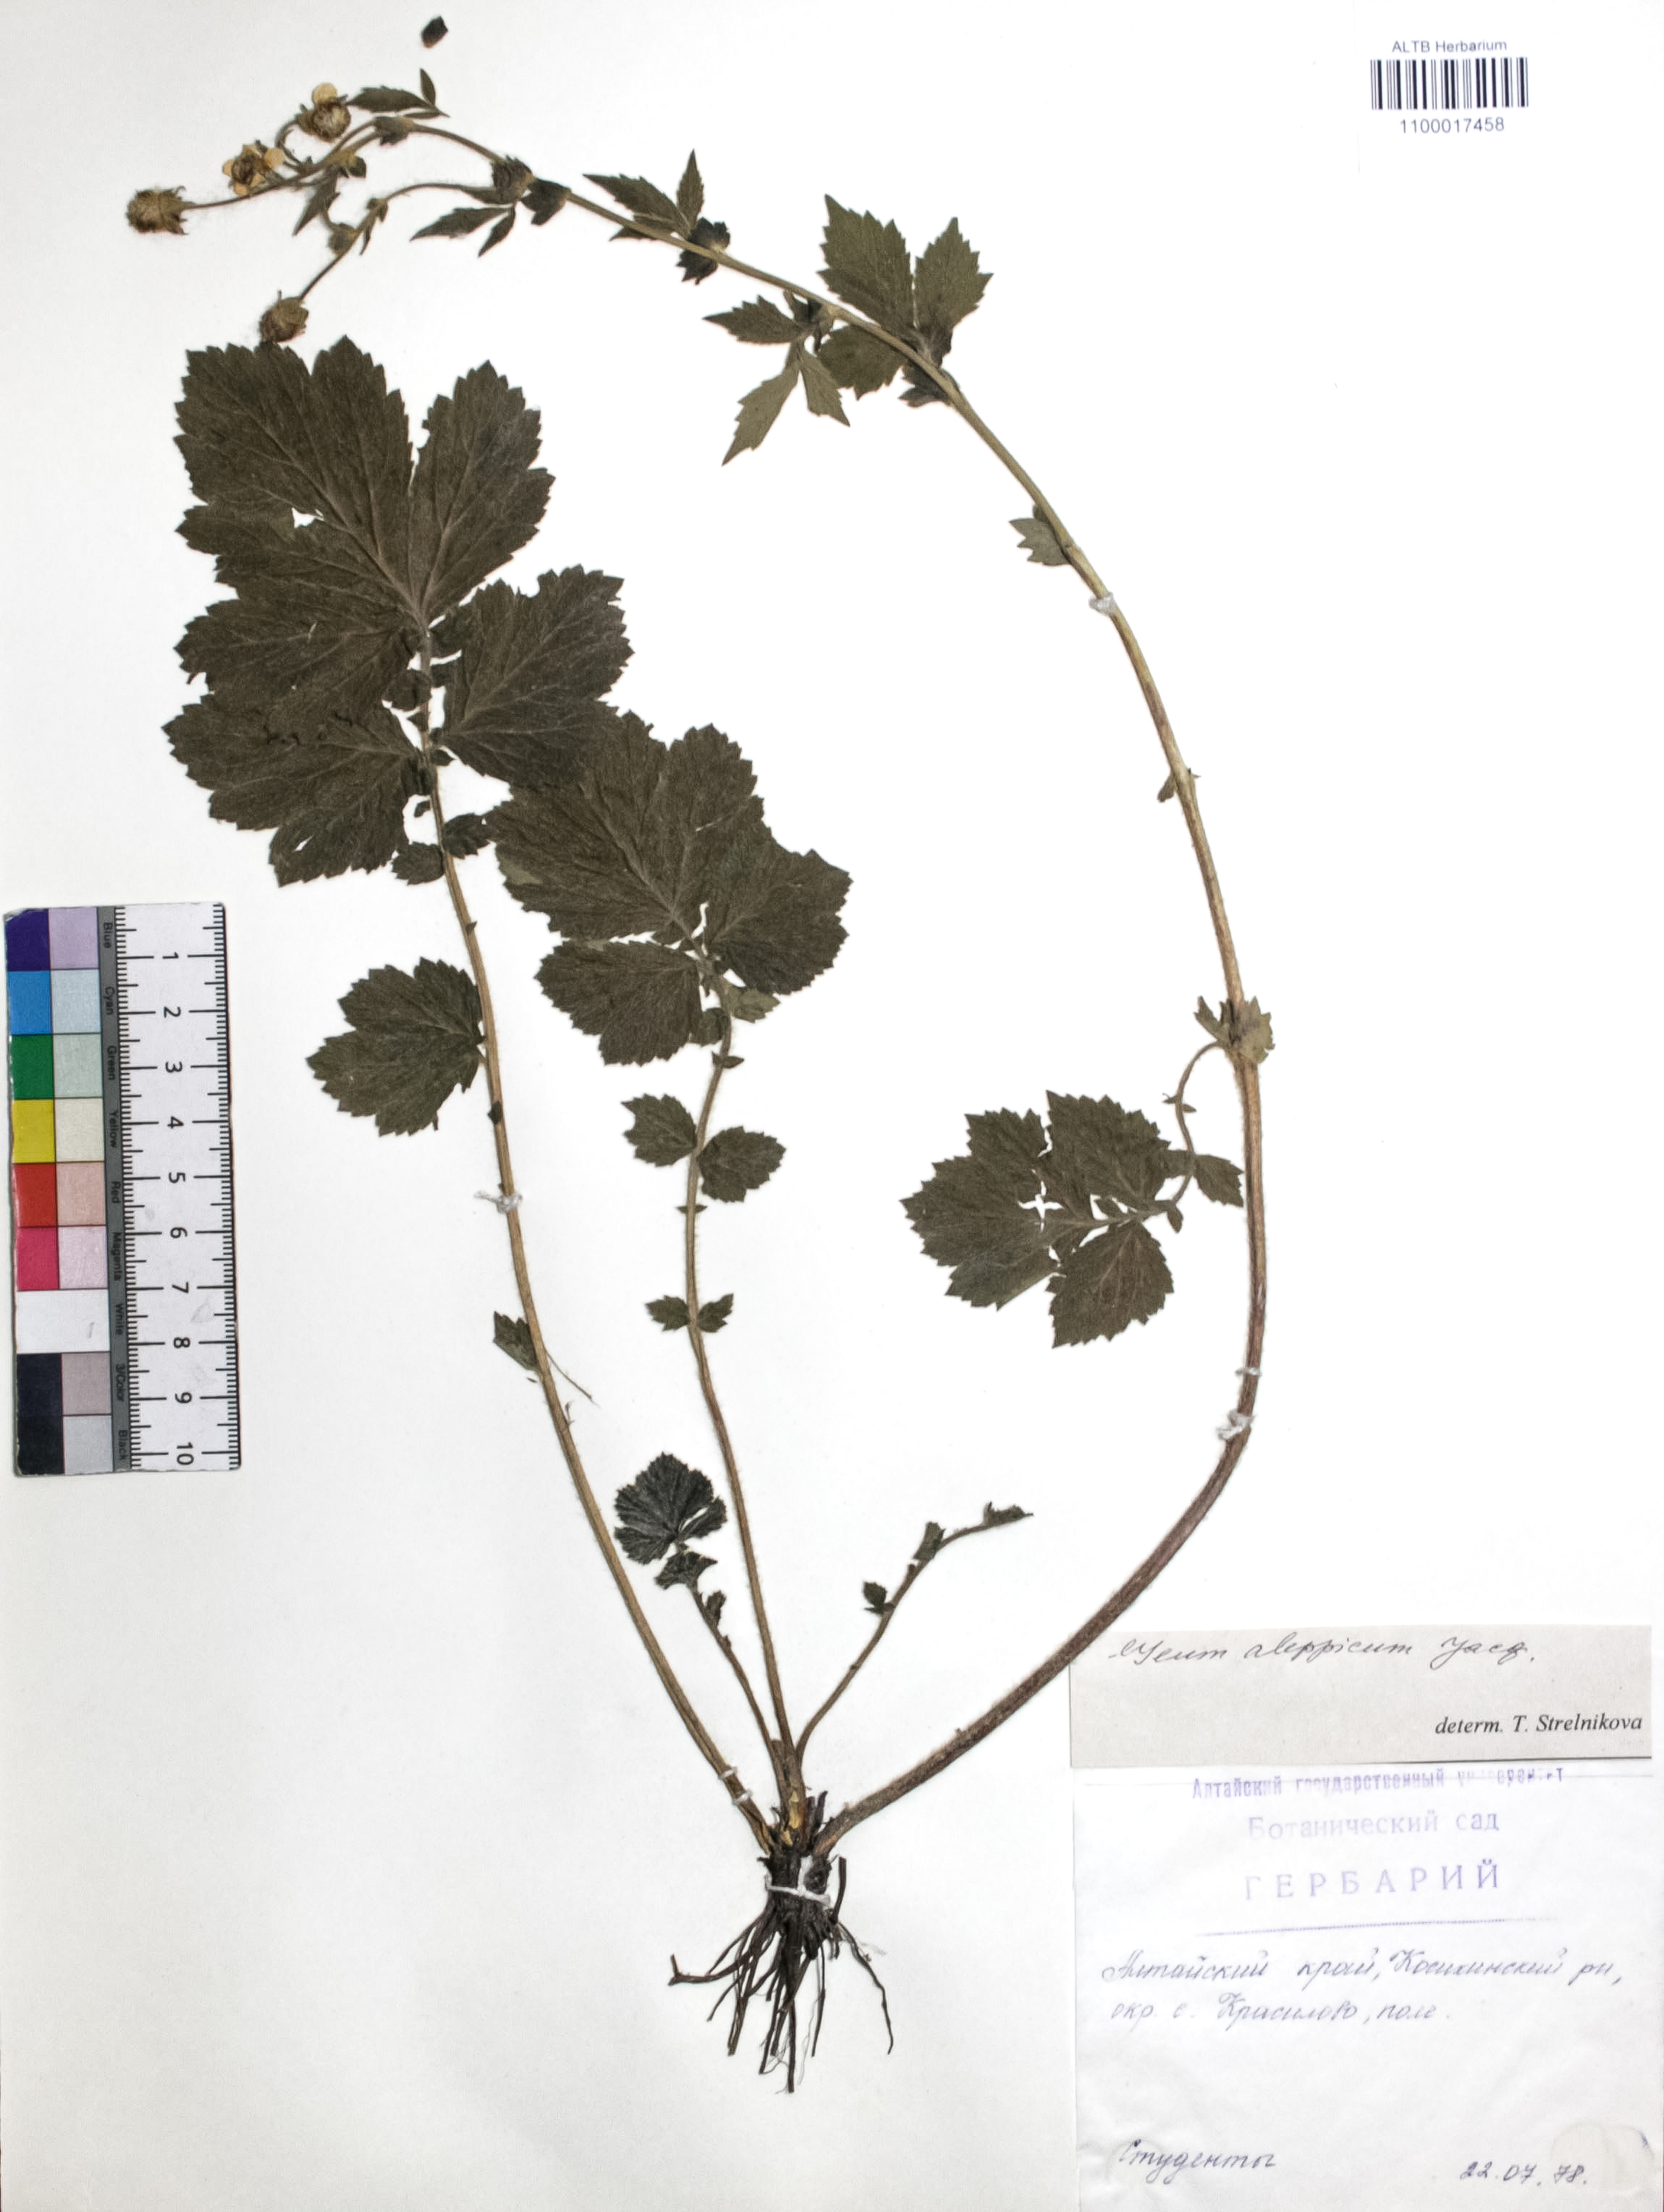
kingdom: Plantae
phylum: Tracheophyta
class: Magnoliopsida
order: Rosales
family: Rosaceae
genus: Geum
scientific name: Geum aleppicum
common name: Yellow avens
